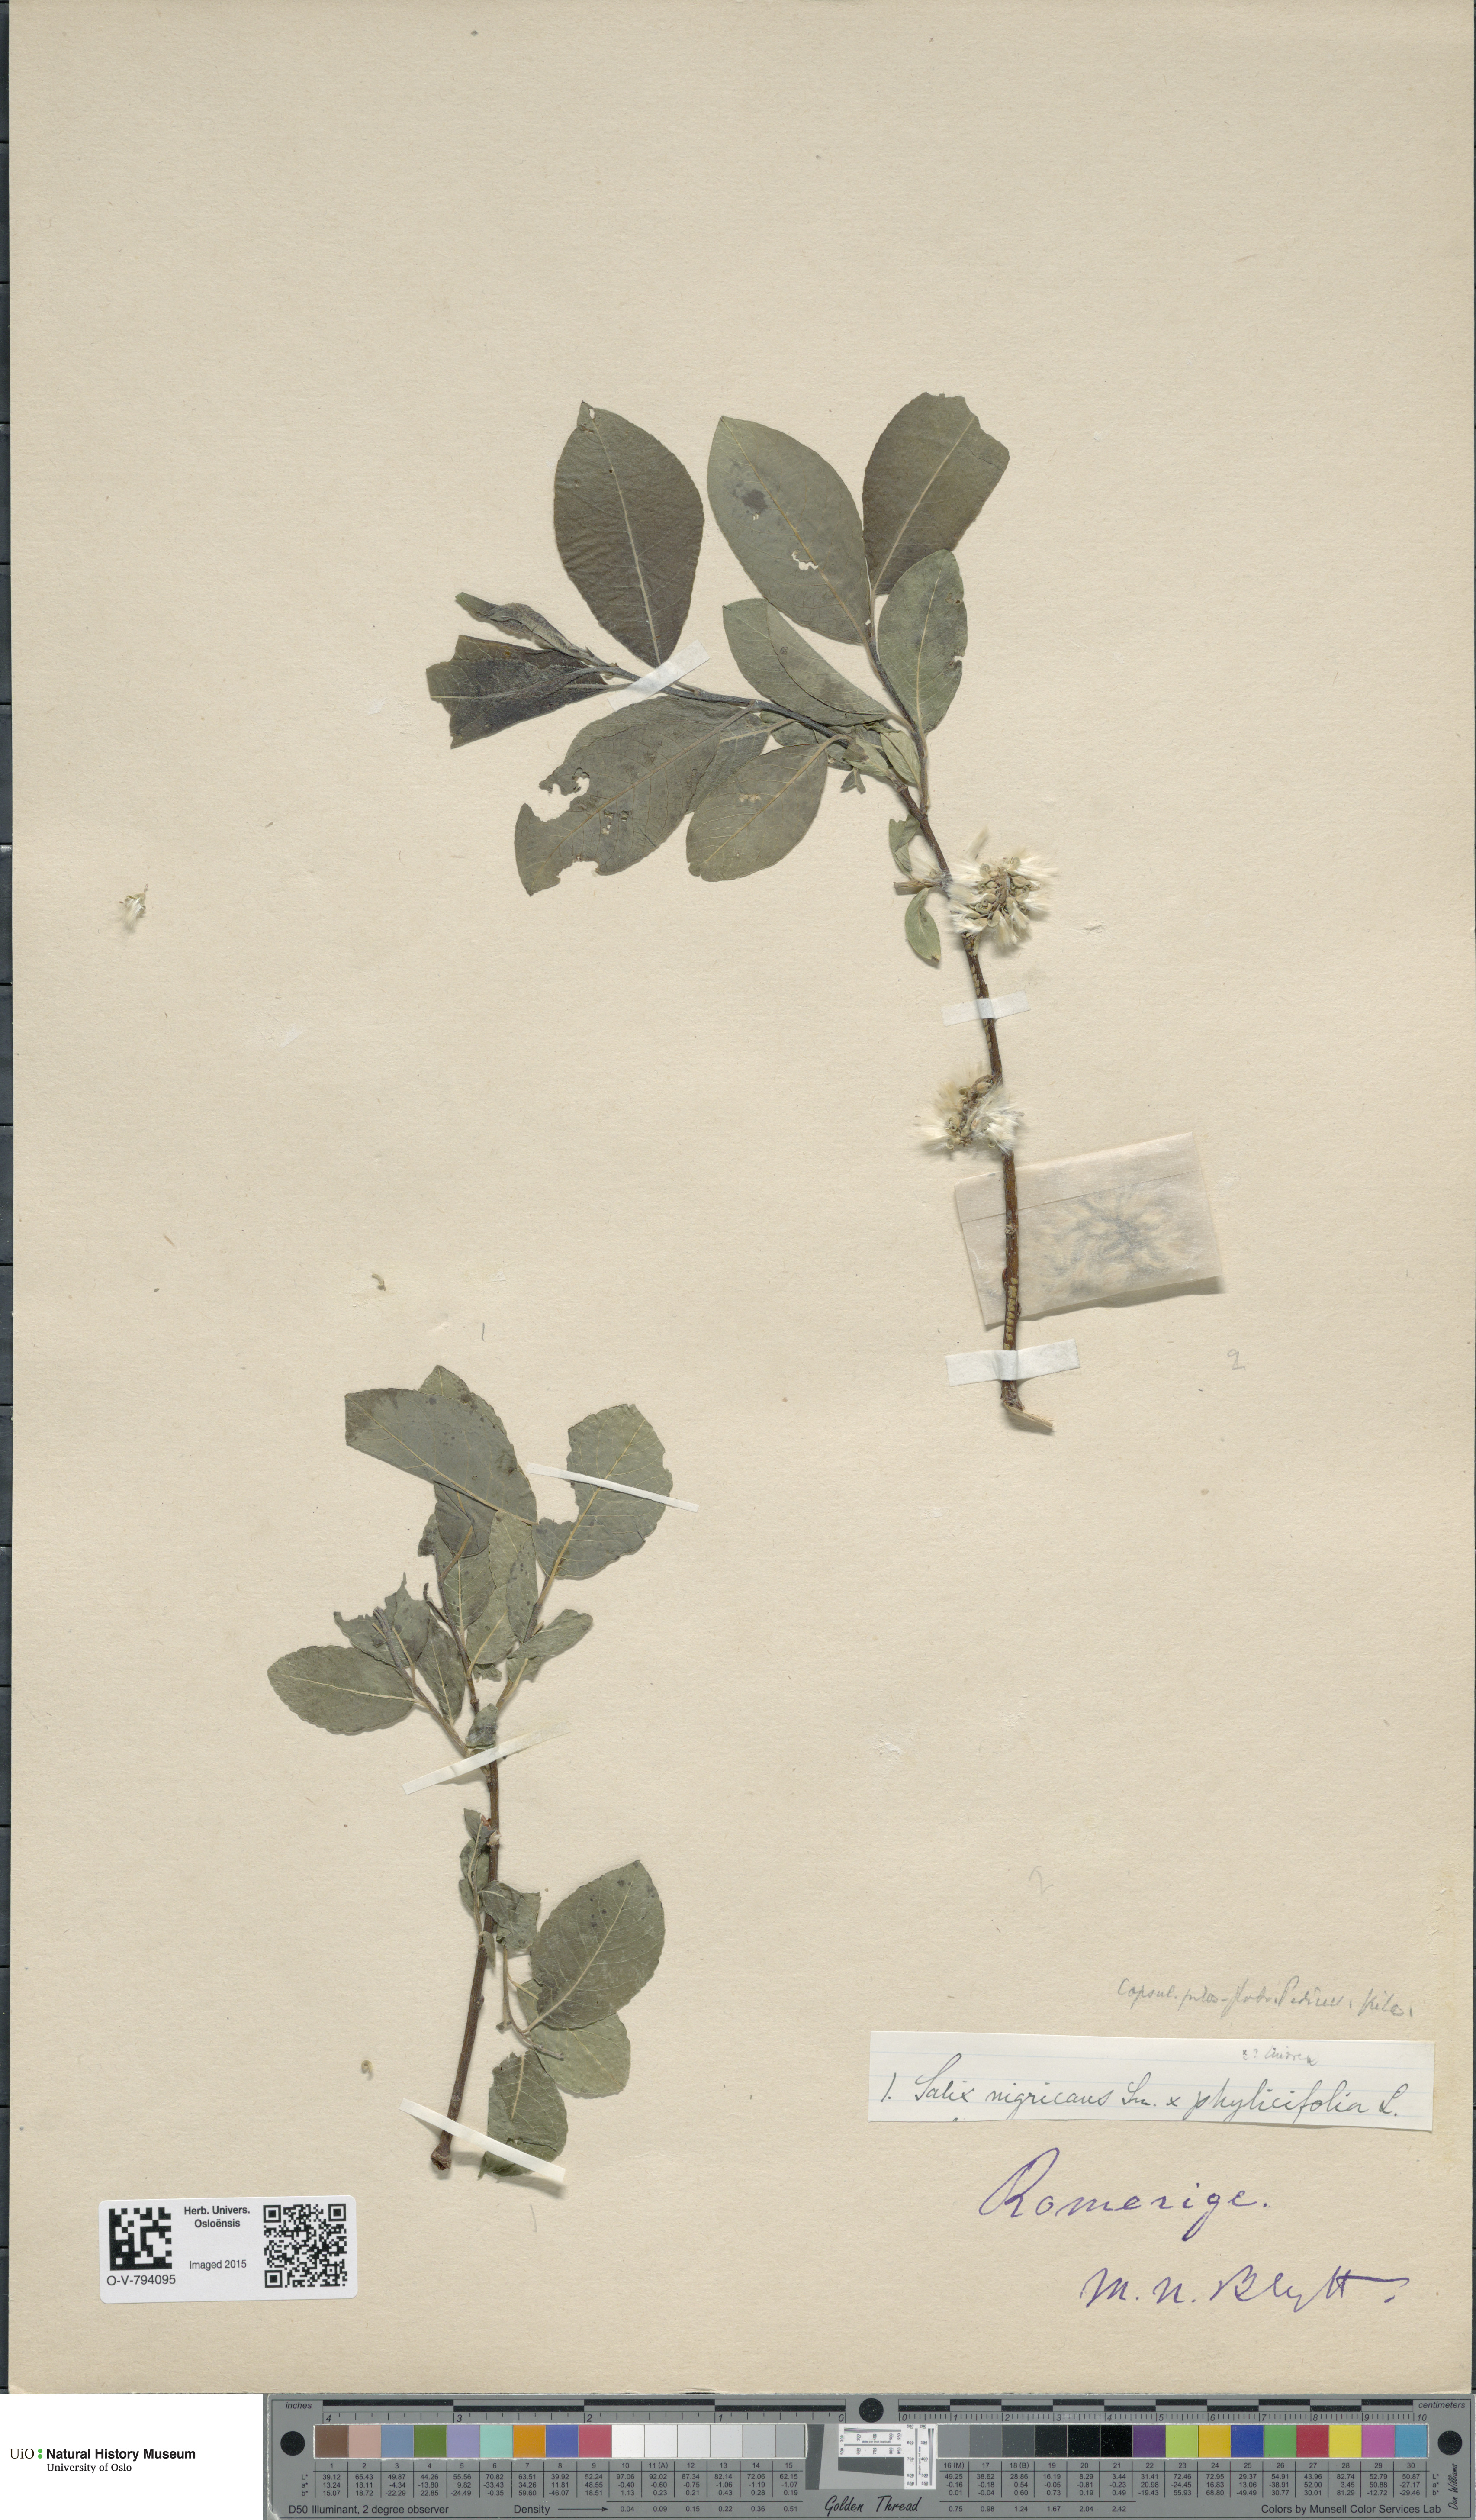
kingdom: Plantae
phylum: Tracheophyta
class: Magnoliopsida
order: Malpighiales
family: Salicaceae
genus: Salix
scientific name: Salix
